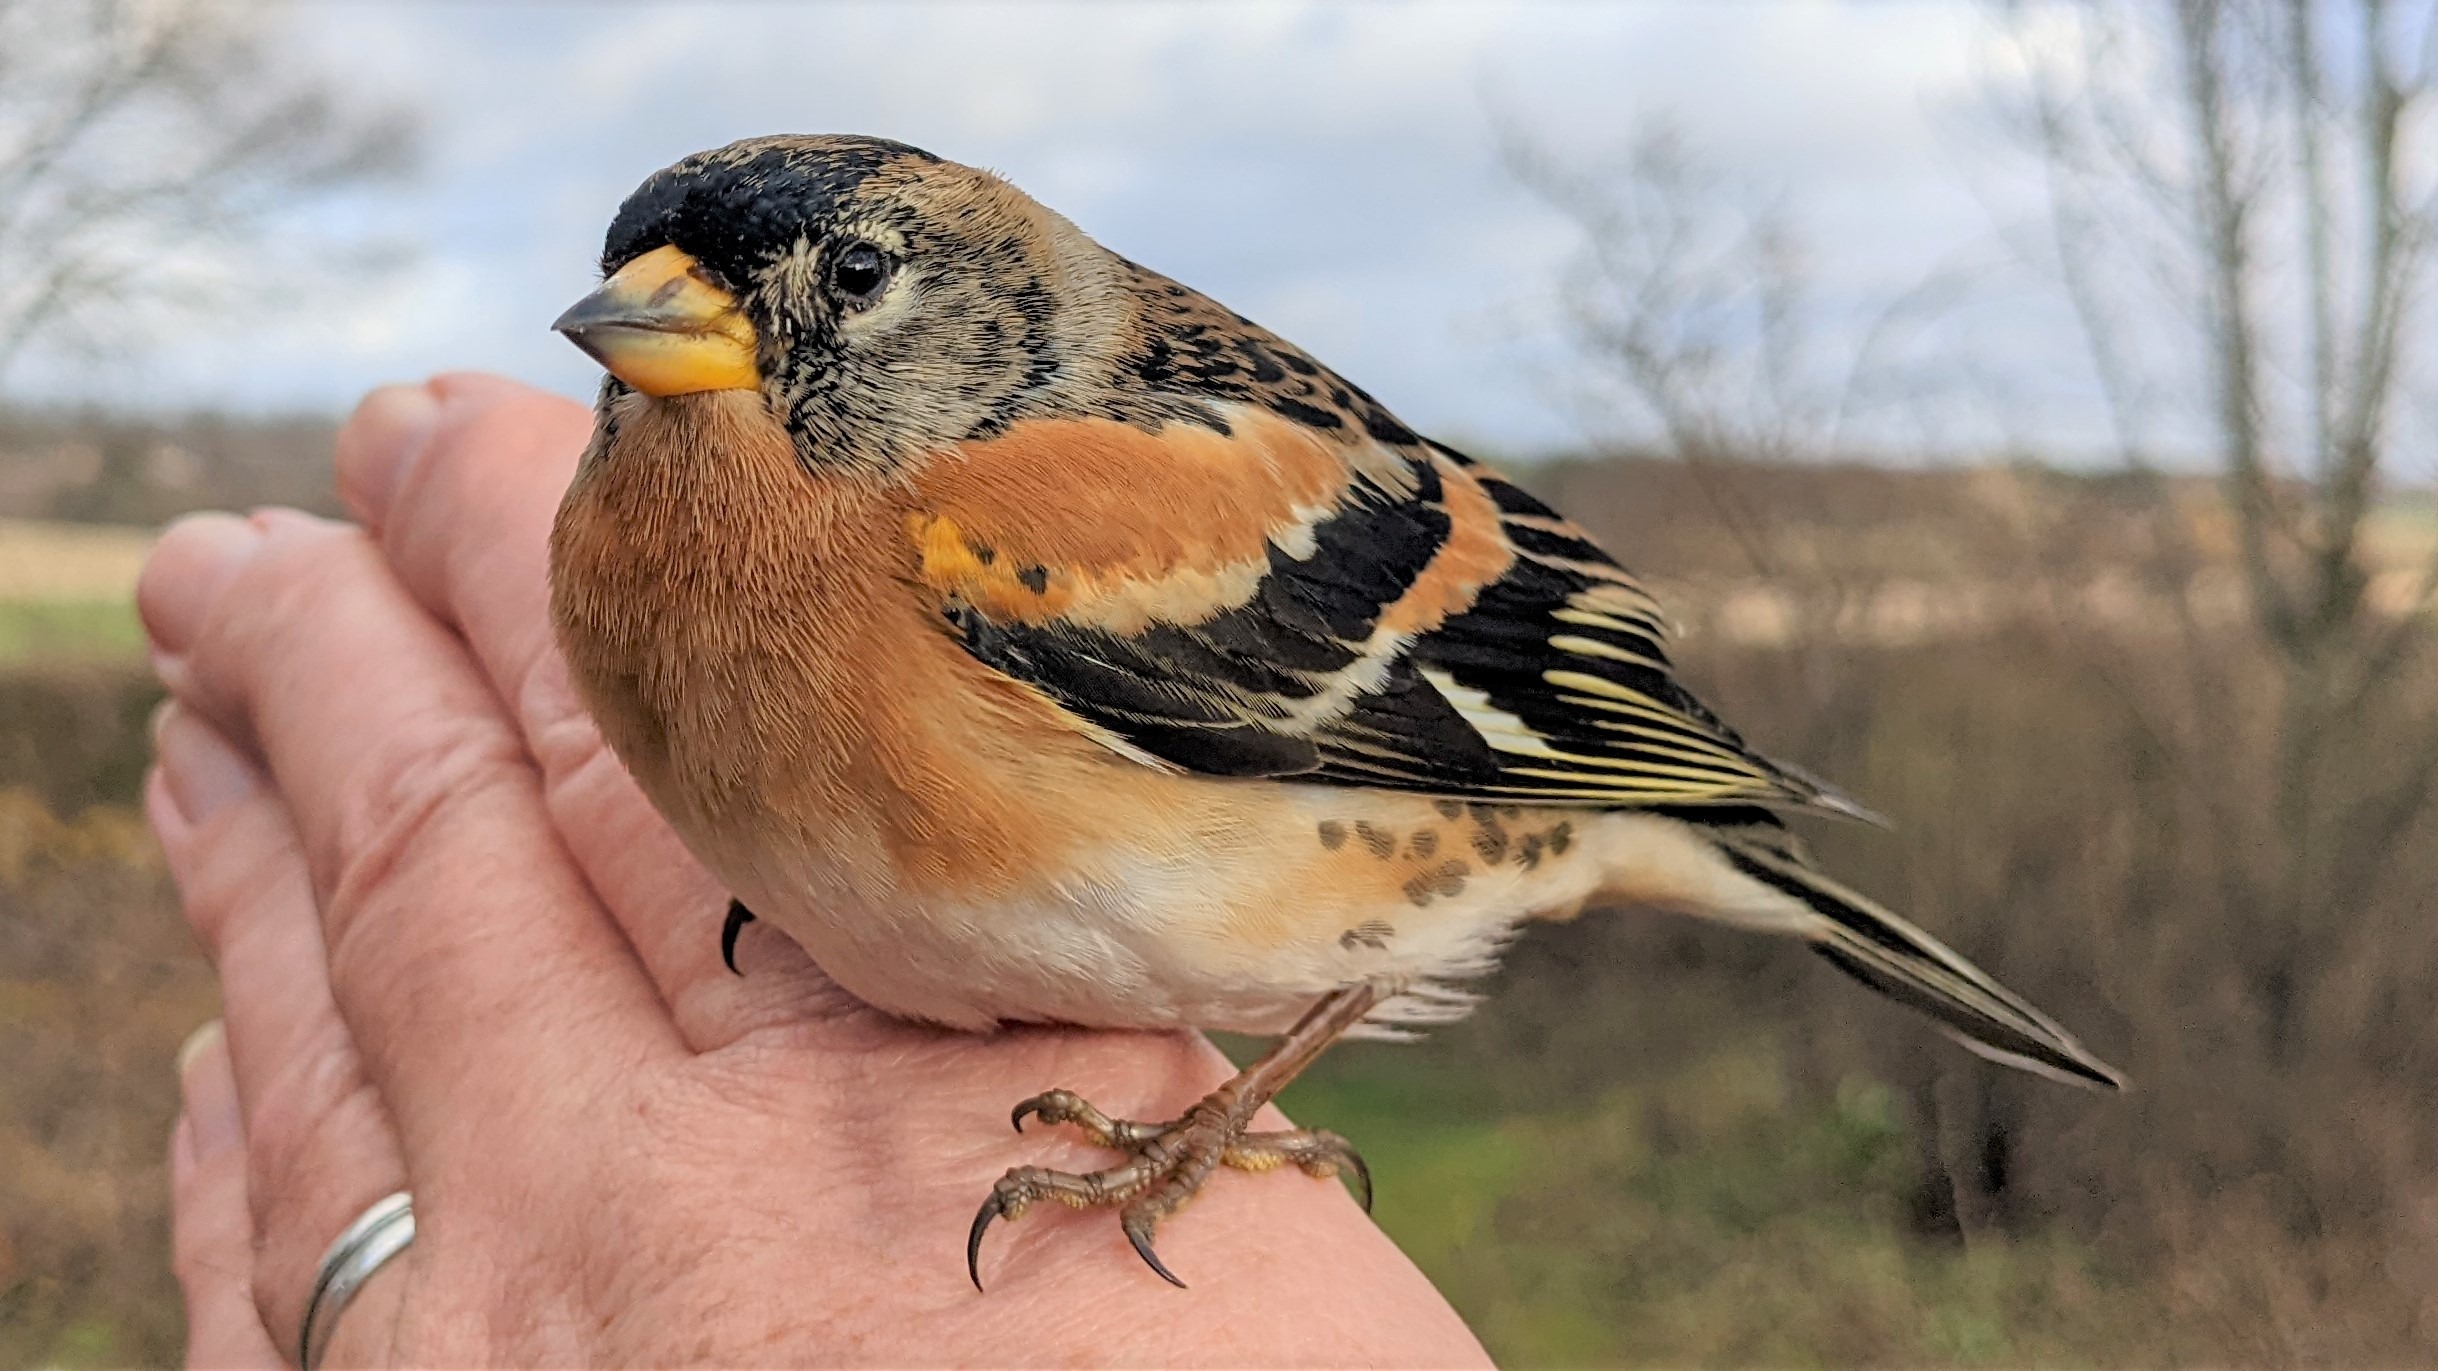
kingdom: Animalia
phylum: Chordata
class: Aves
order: Passeriformes
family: Fringillidae
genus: Fringilla
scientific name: Fringilla montifringilla
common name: Kvækerfinke
